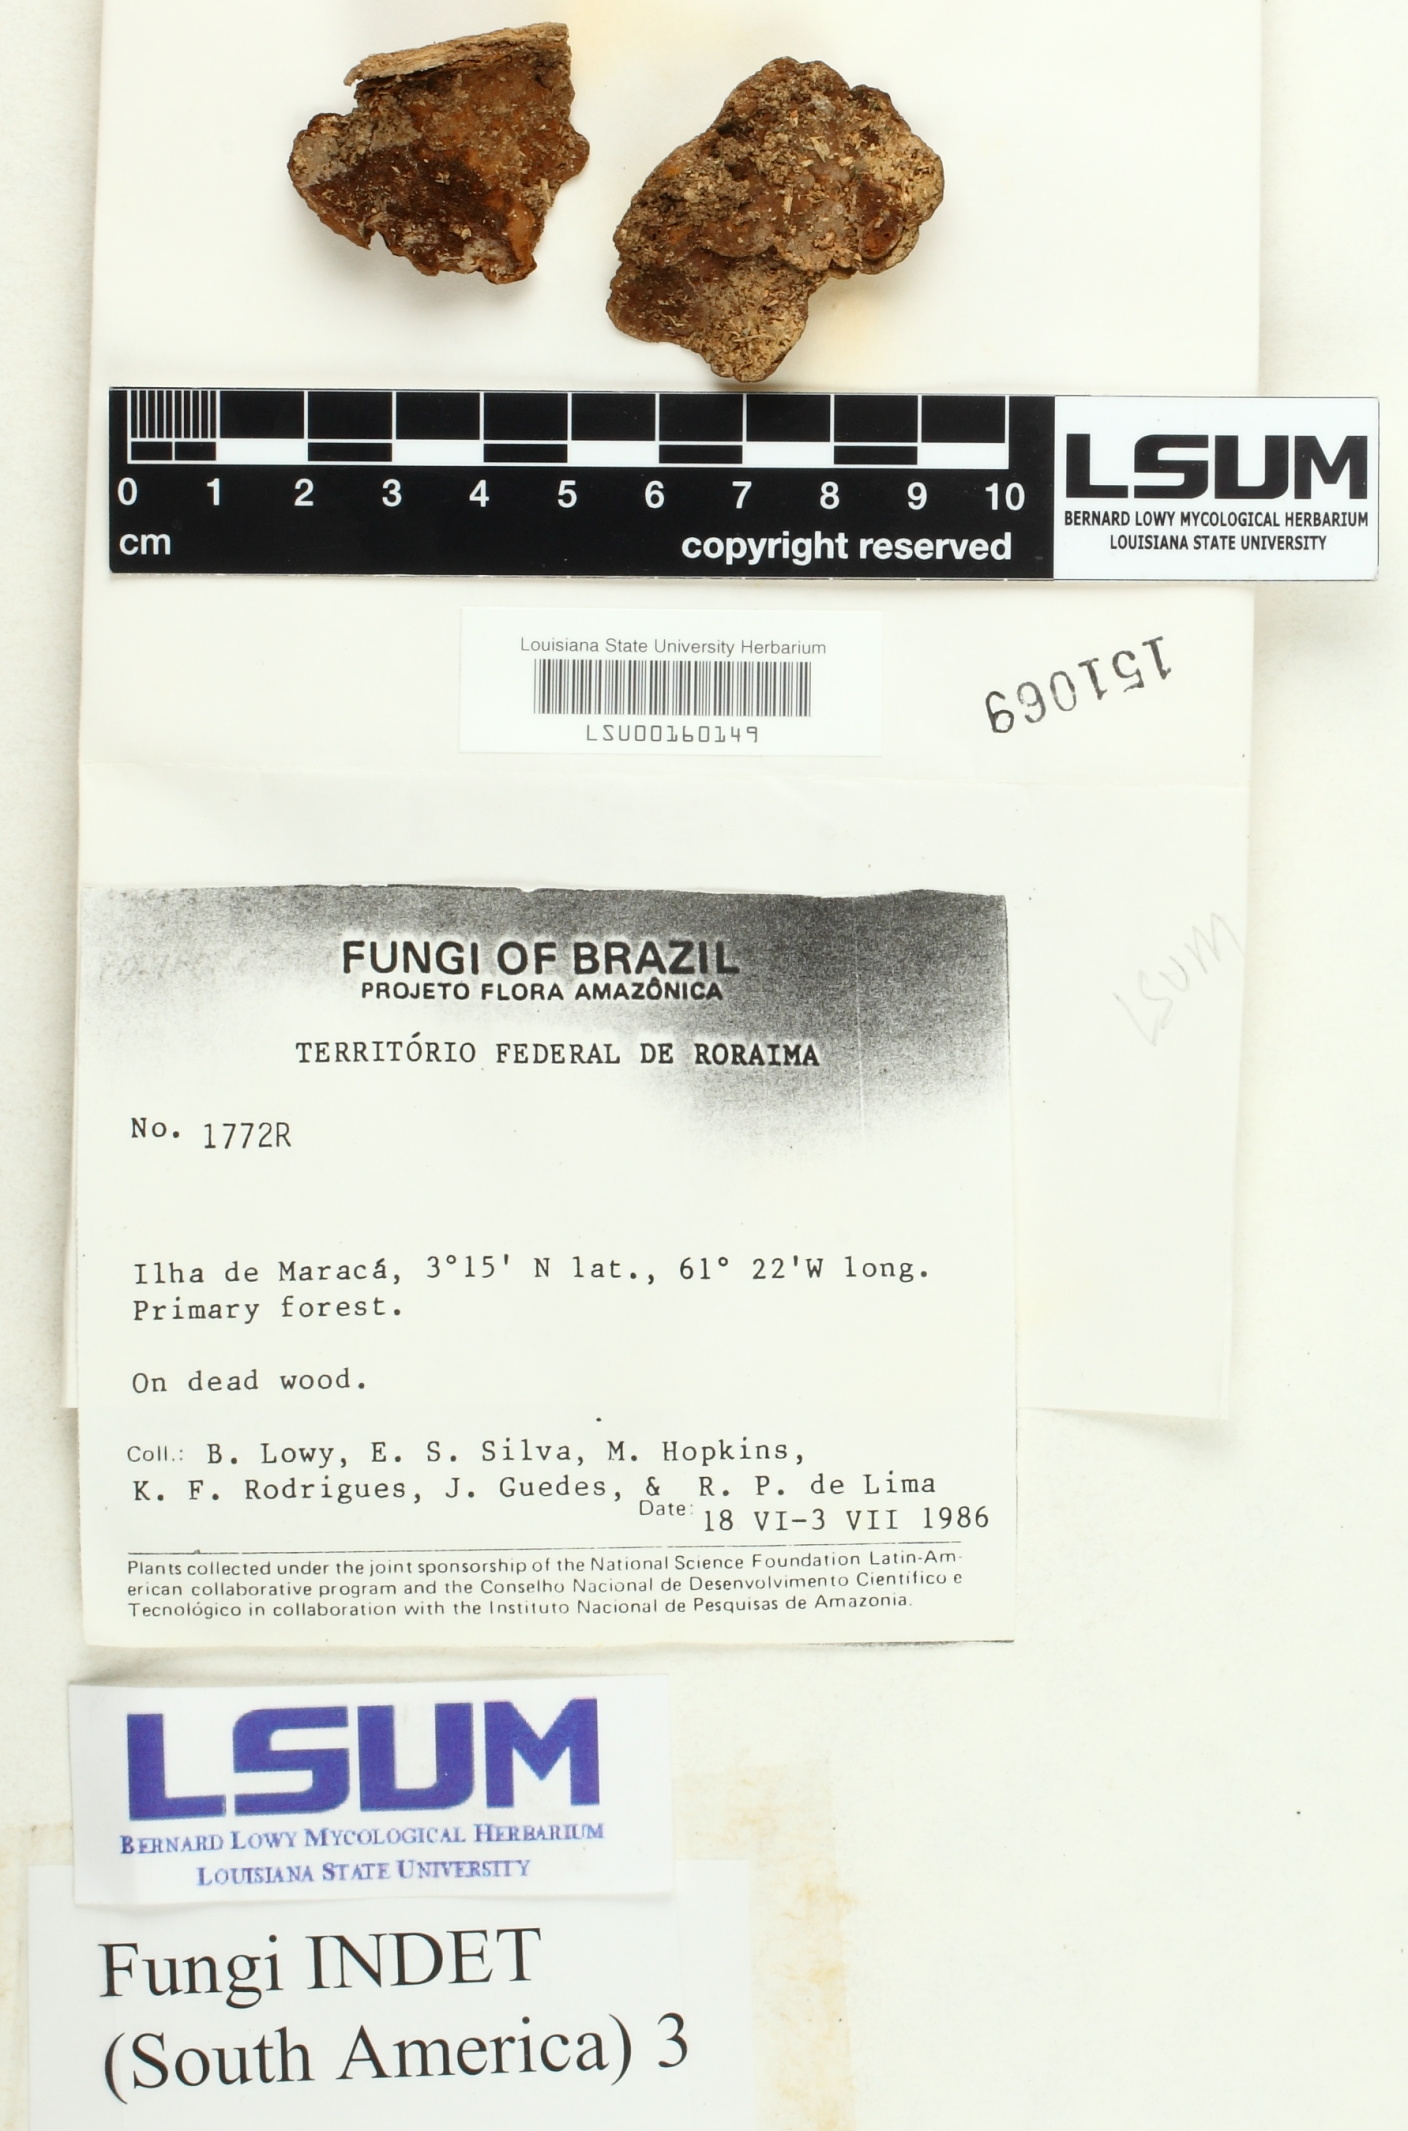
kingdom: Fungi
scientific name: Fungi
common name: Fungi
